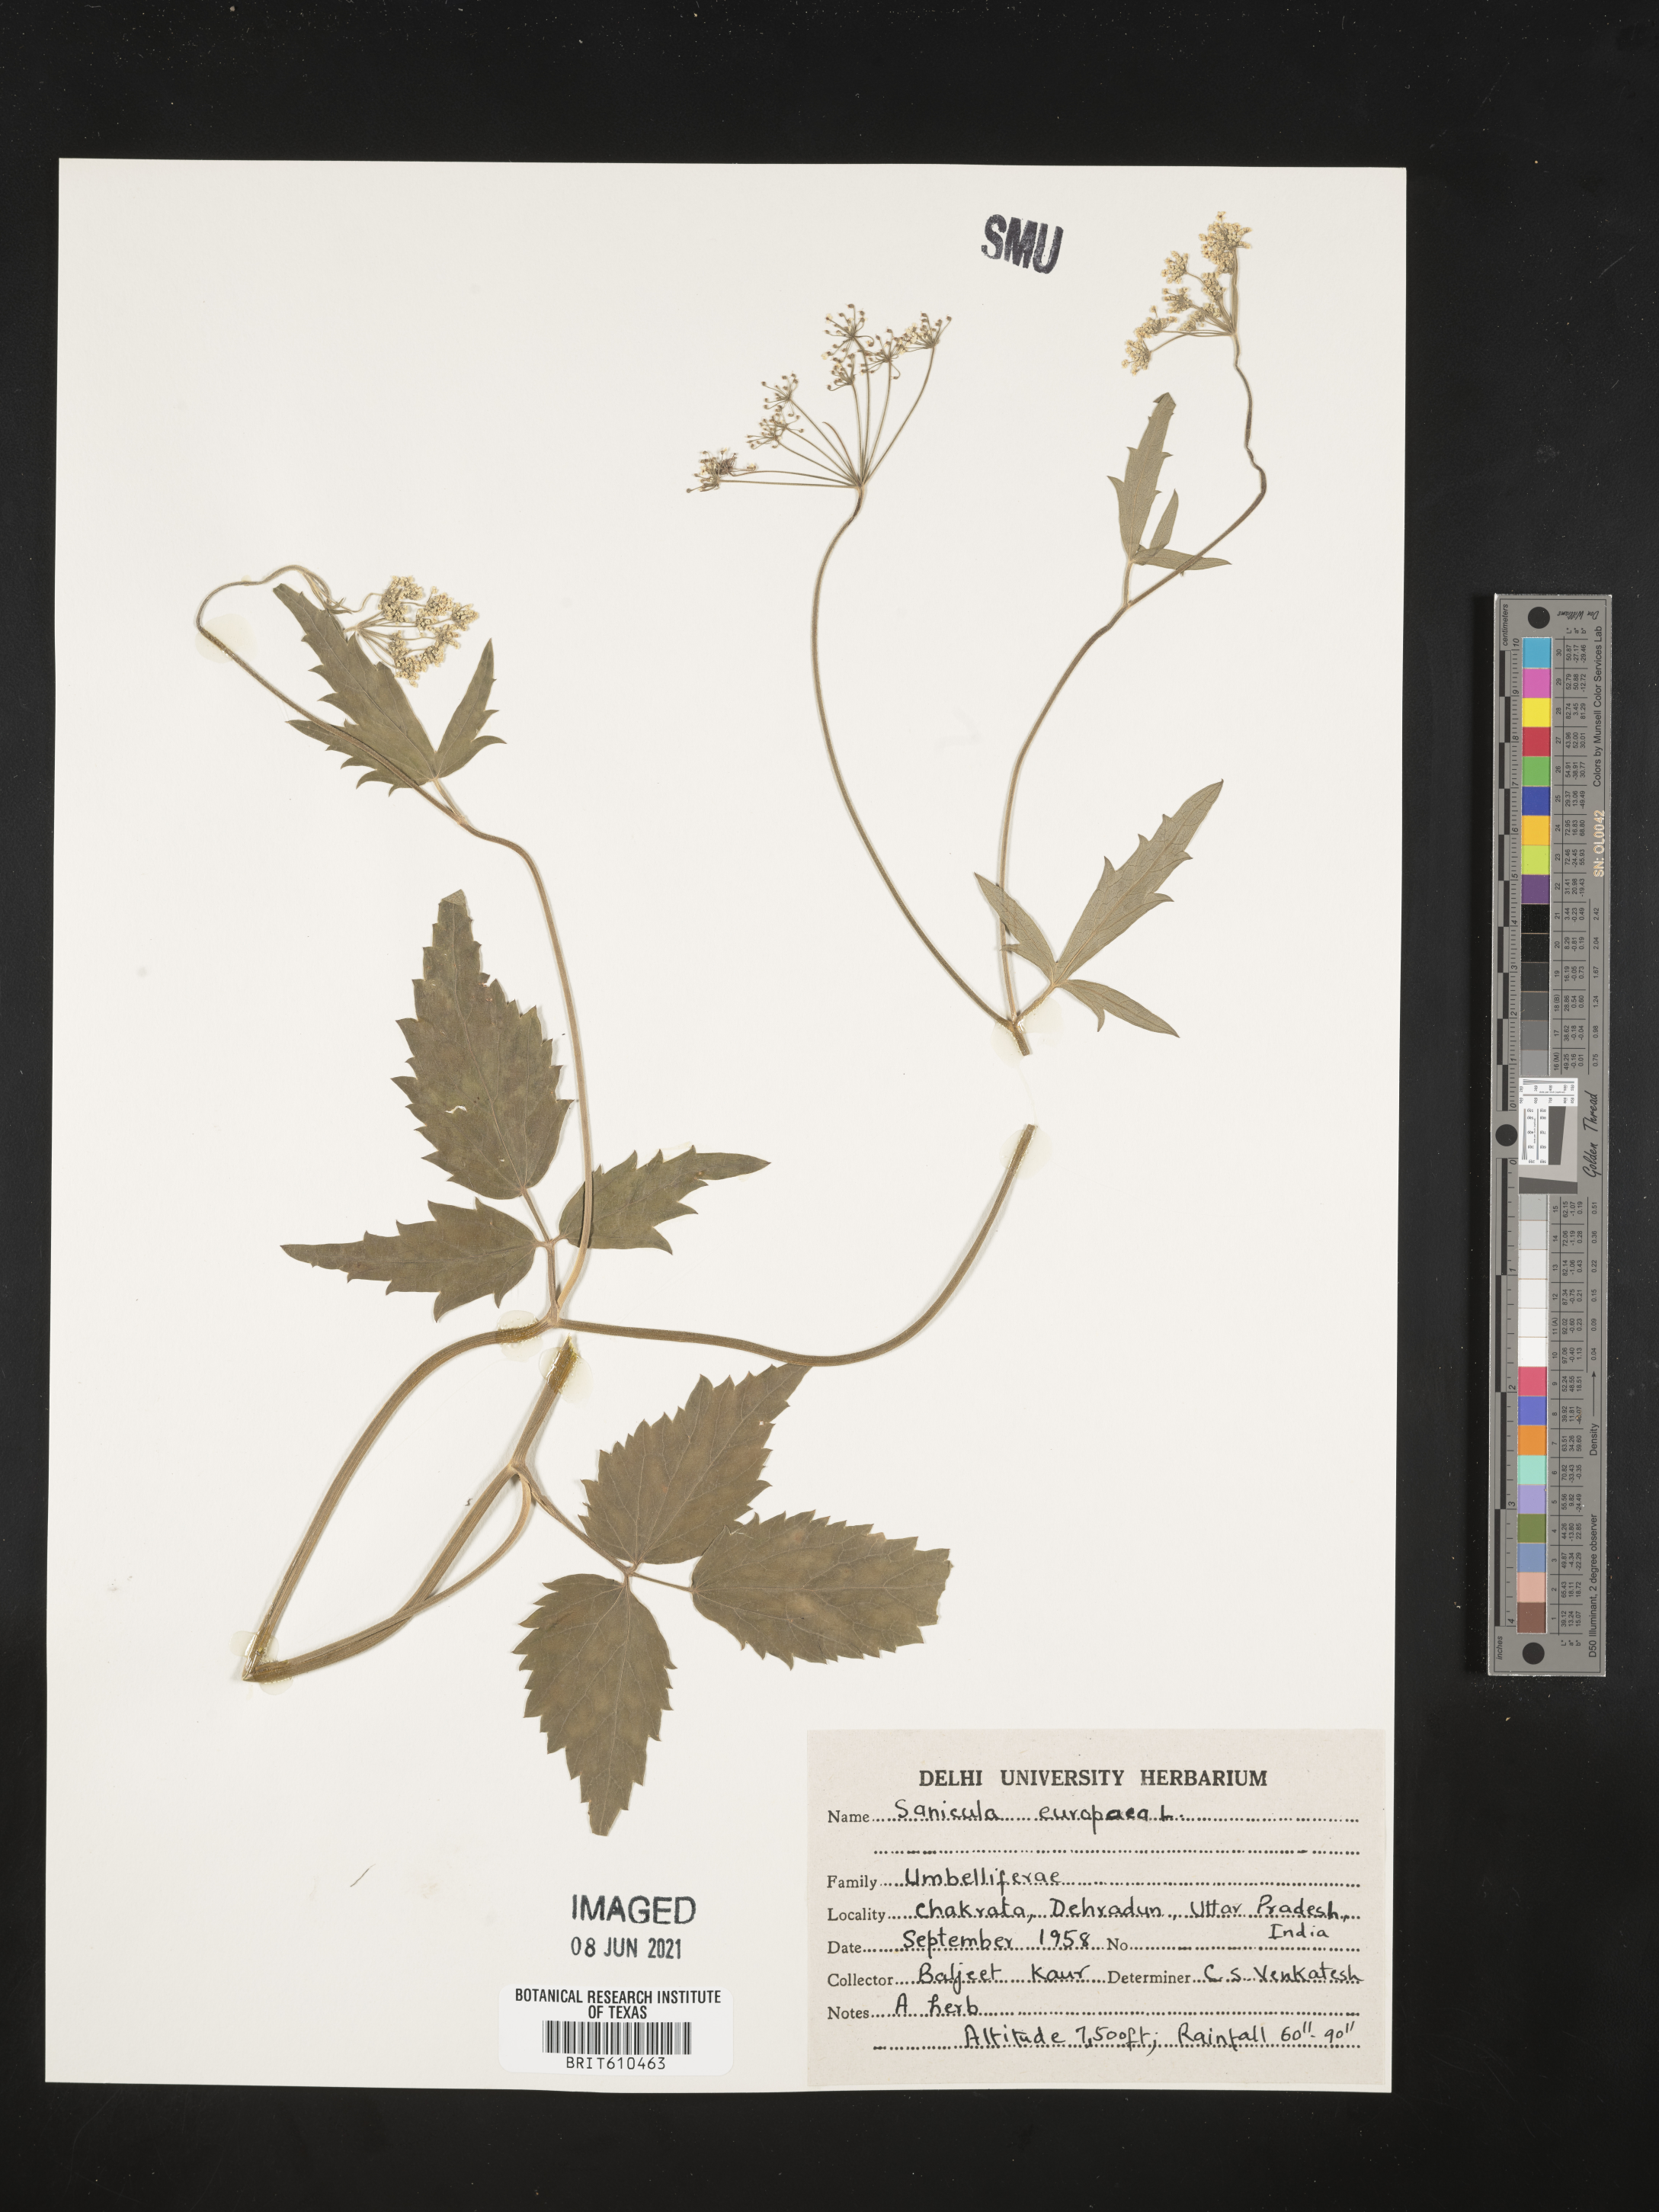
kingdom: Plantae
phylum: Tracheophyta
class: Magnoliopsida
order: Apiales
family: Apiaceae
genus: Sanicula
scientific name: Sanicula europaea
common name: Sanicle
